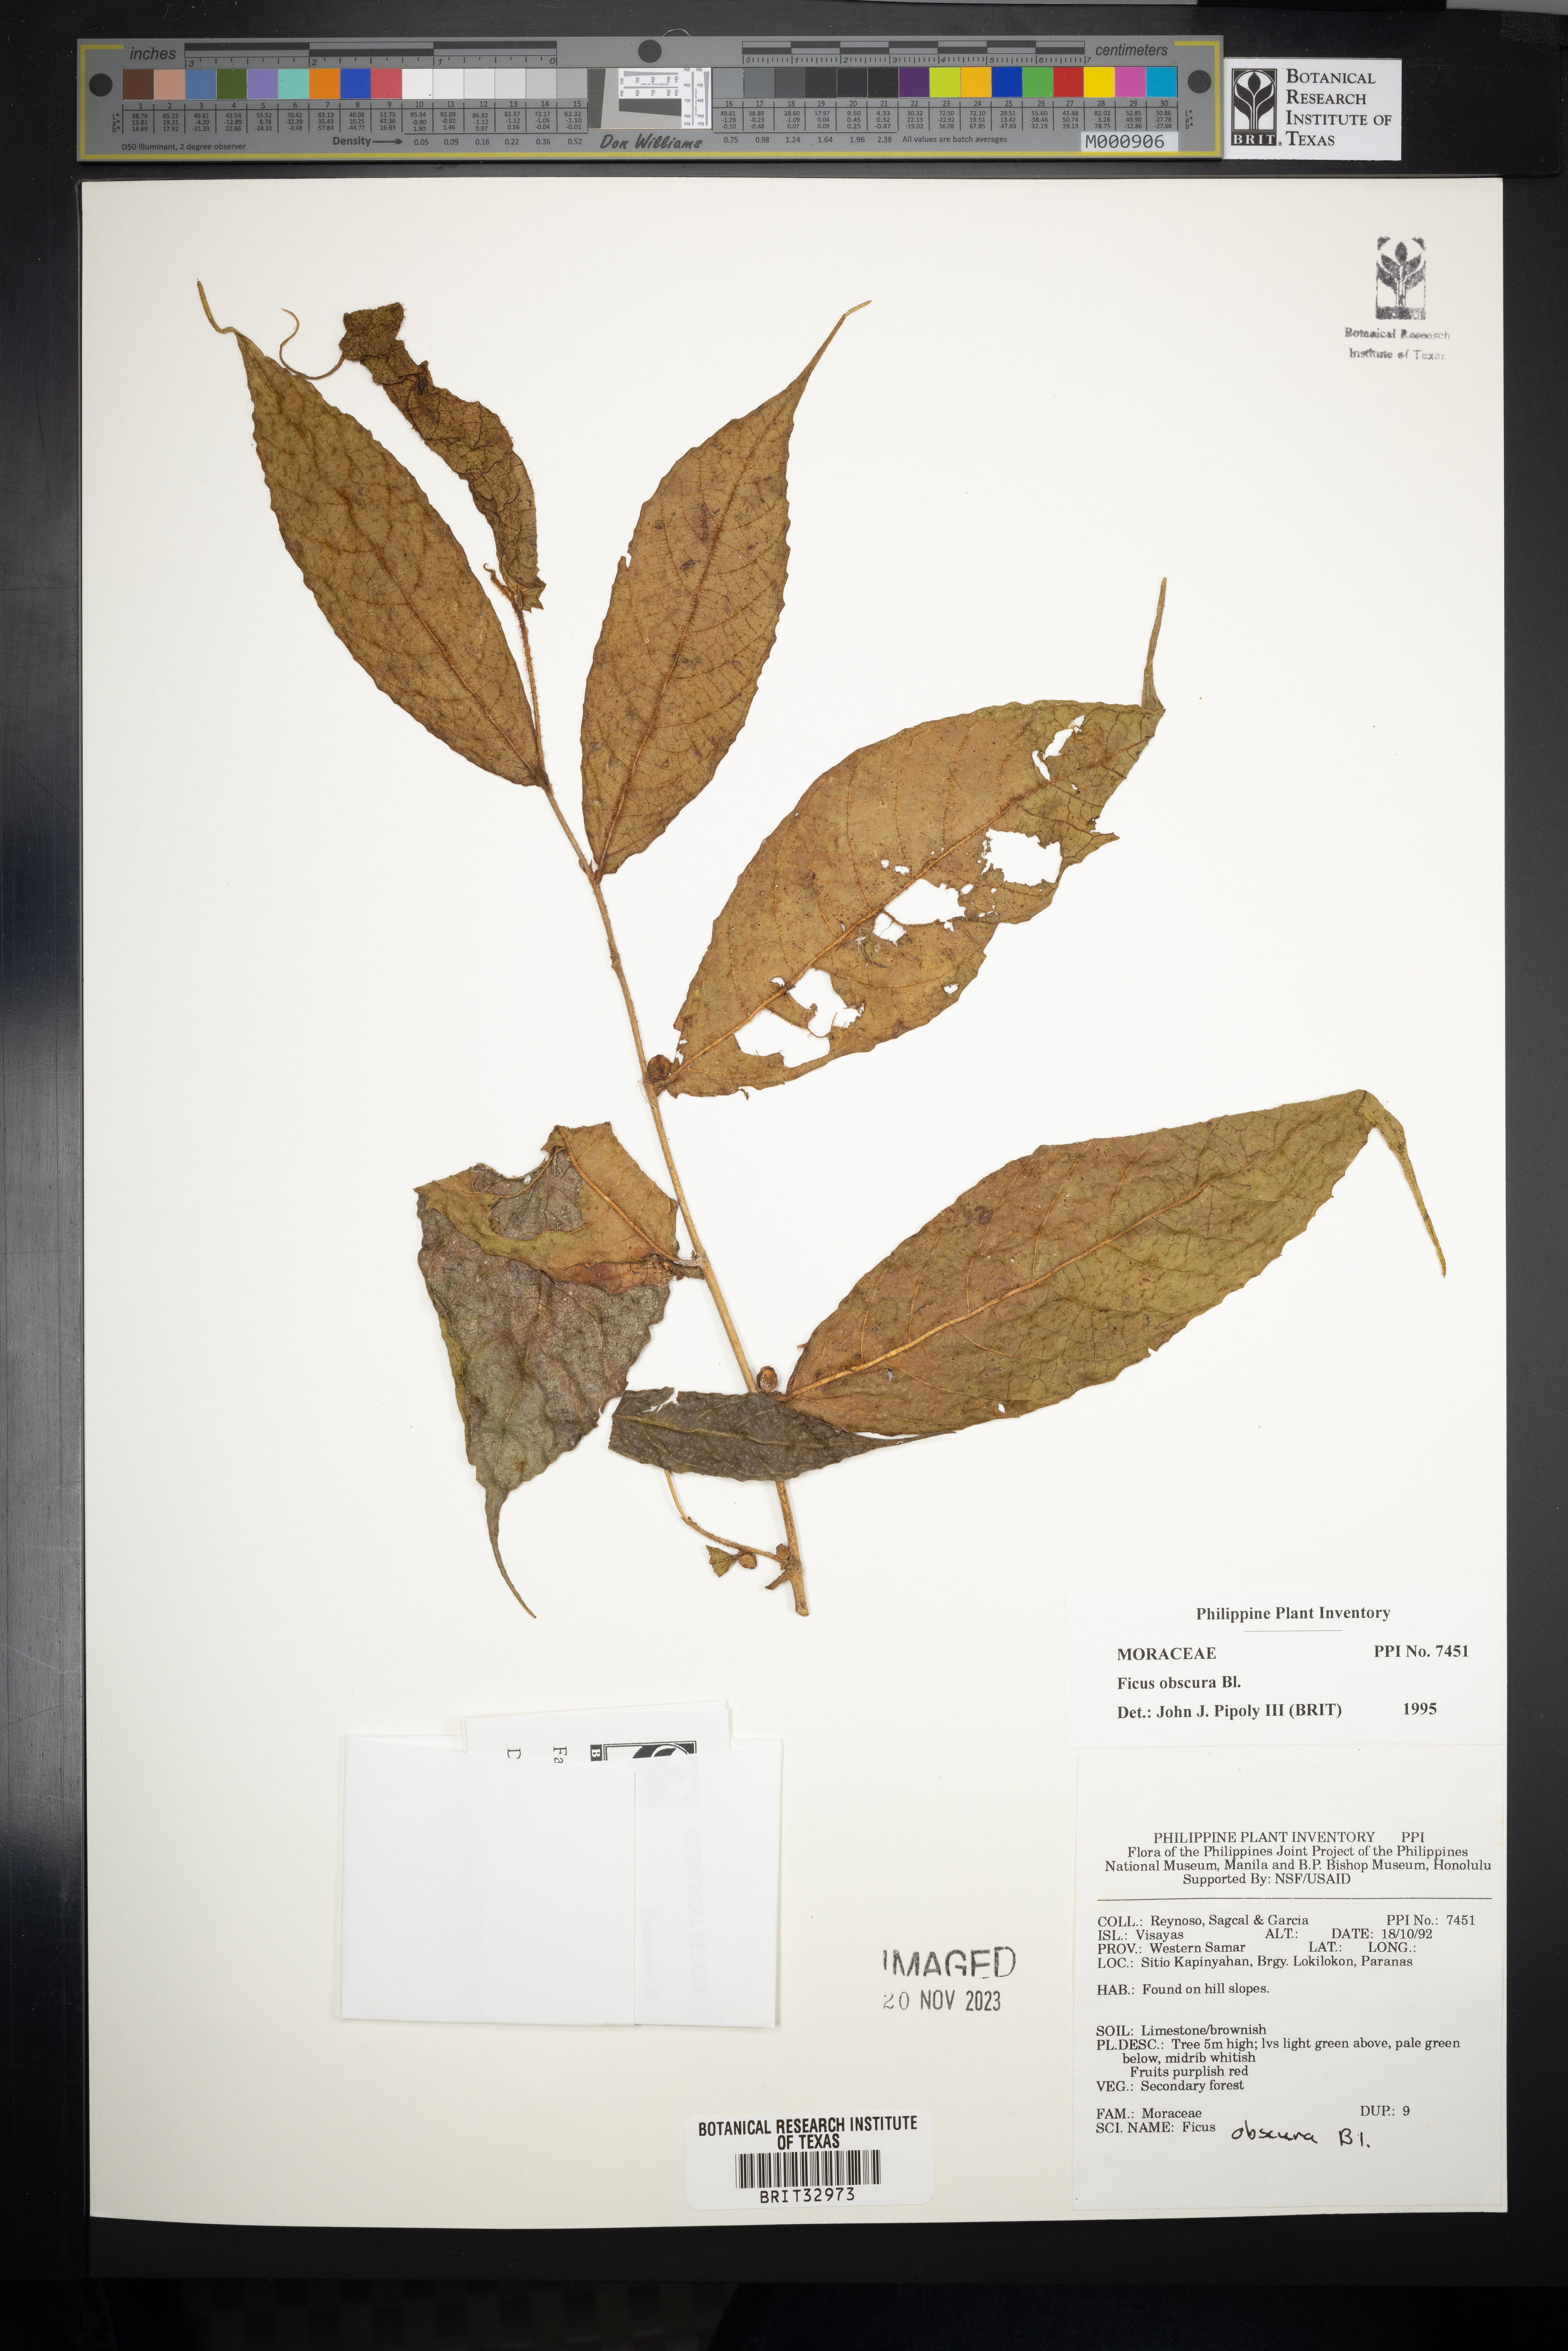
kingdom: Plantae
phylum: Tracheophyta
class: Magnoliopsida
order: Rosales
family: Moraceae
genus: Ficus
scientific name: Ficus obscura
